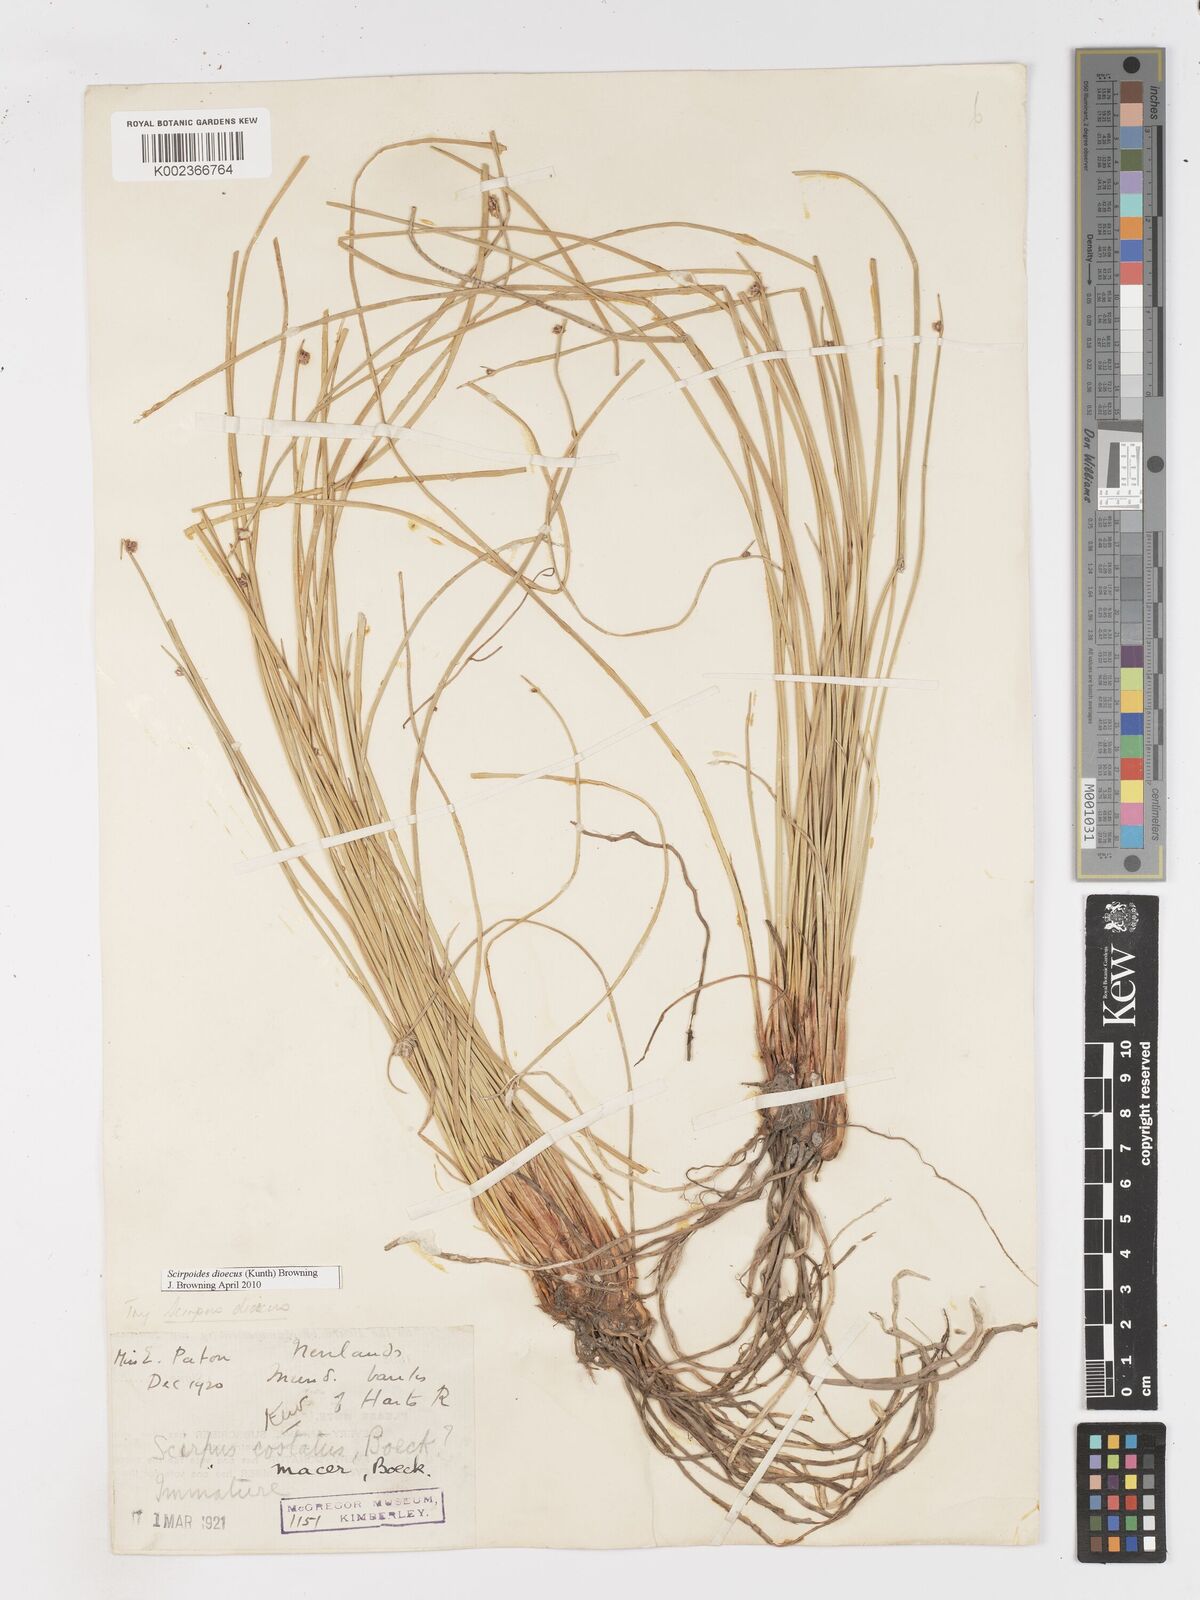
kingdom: Plantae
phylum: Tracheophyta
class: Liliopsida
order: Poales
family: Cyperaceae
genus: Afroscirpoides
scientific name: Afroscirpoides dioeca
